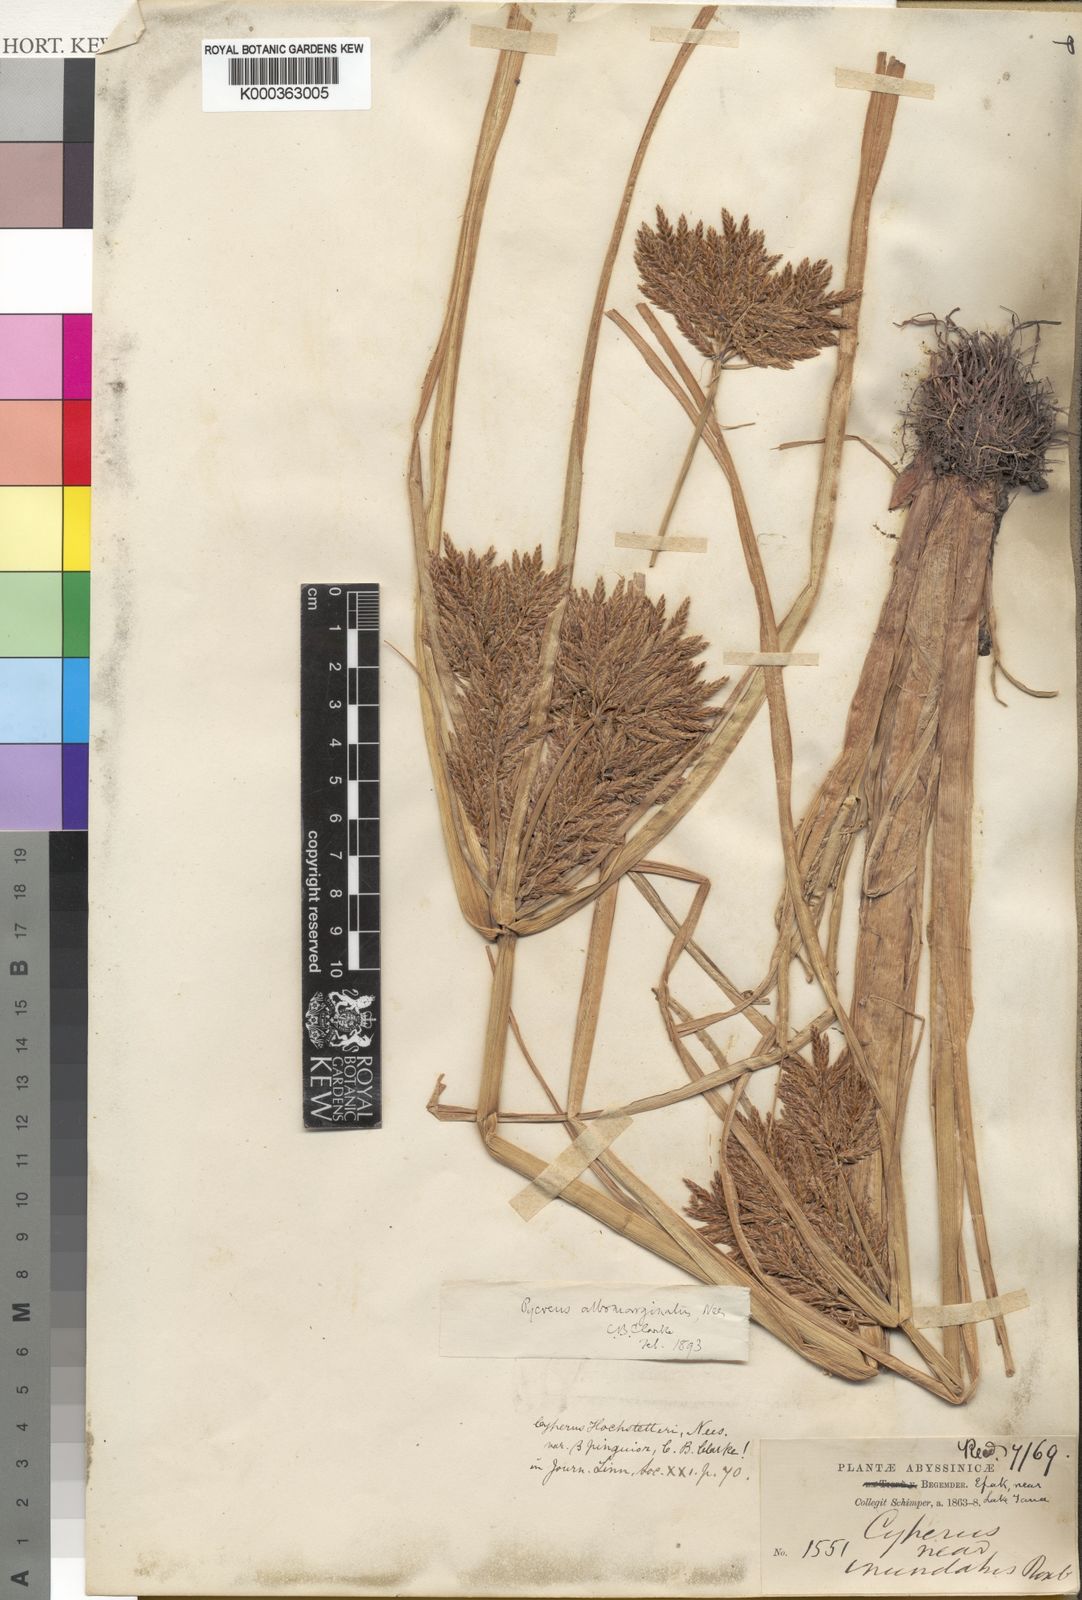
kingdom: Plantae
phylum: Tracheophyta
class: Liliopsida
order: Poales
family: Cyperaceae
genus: Cyperus
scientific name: Cyperus macrostachyos
